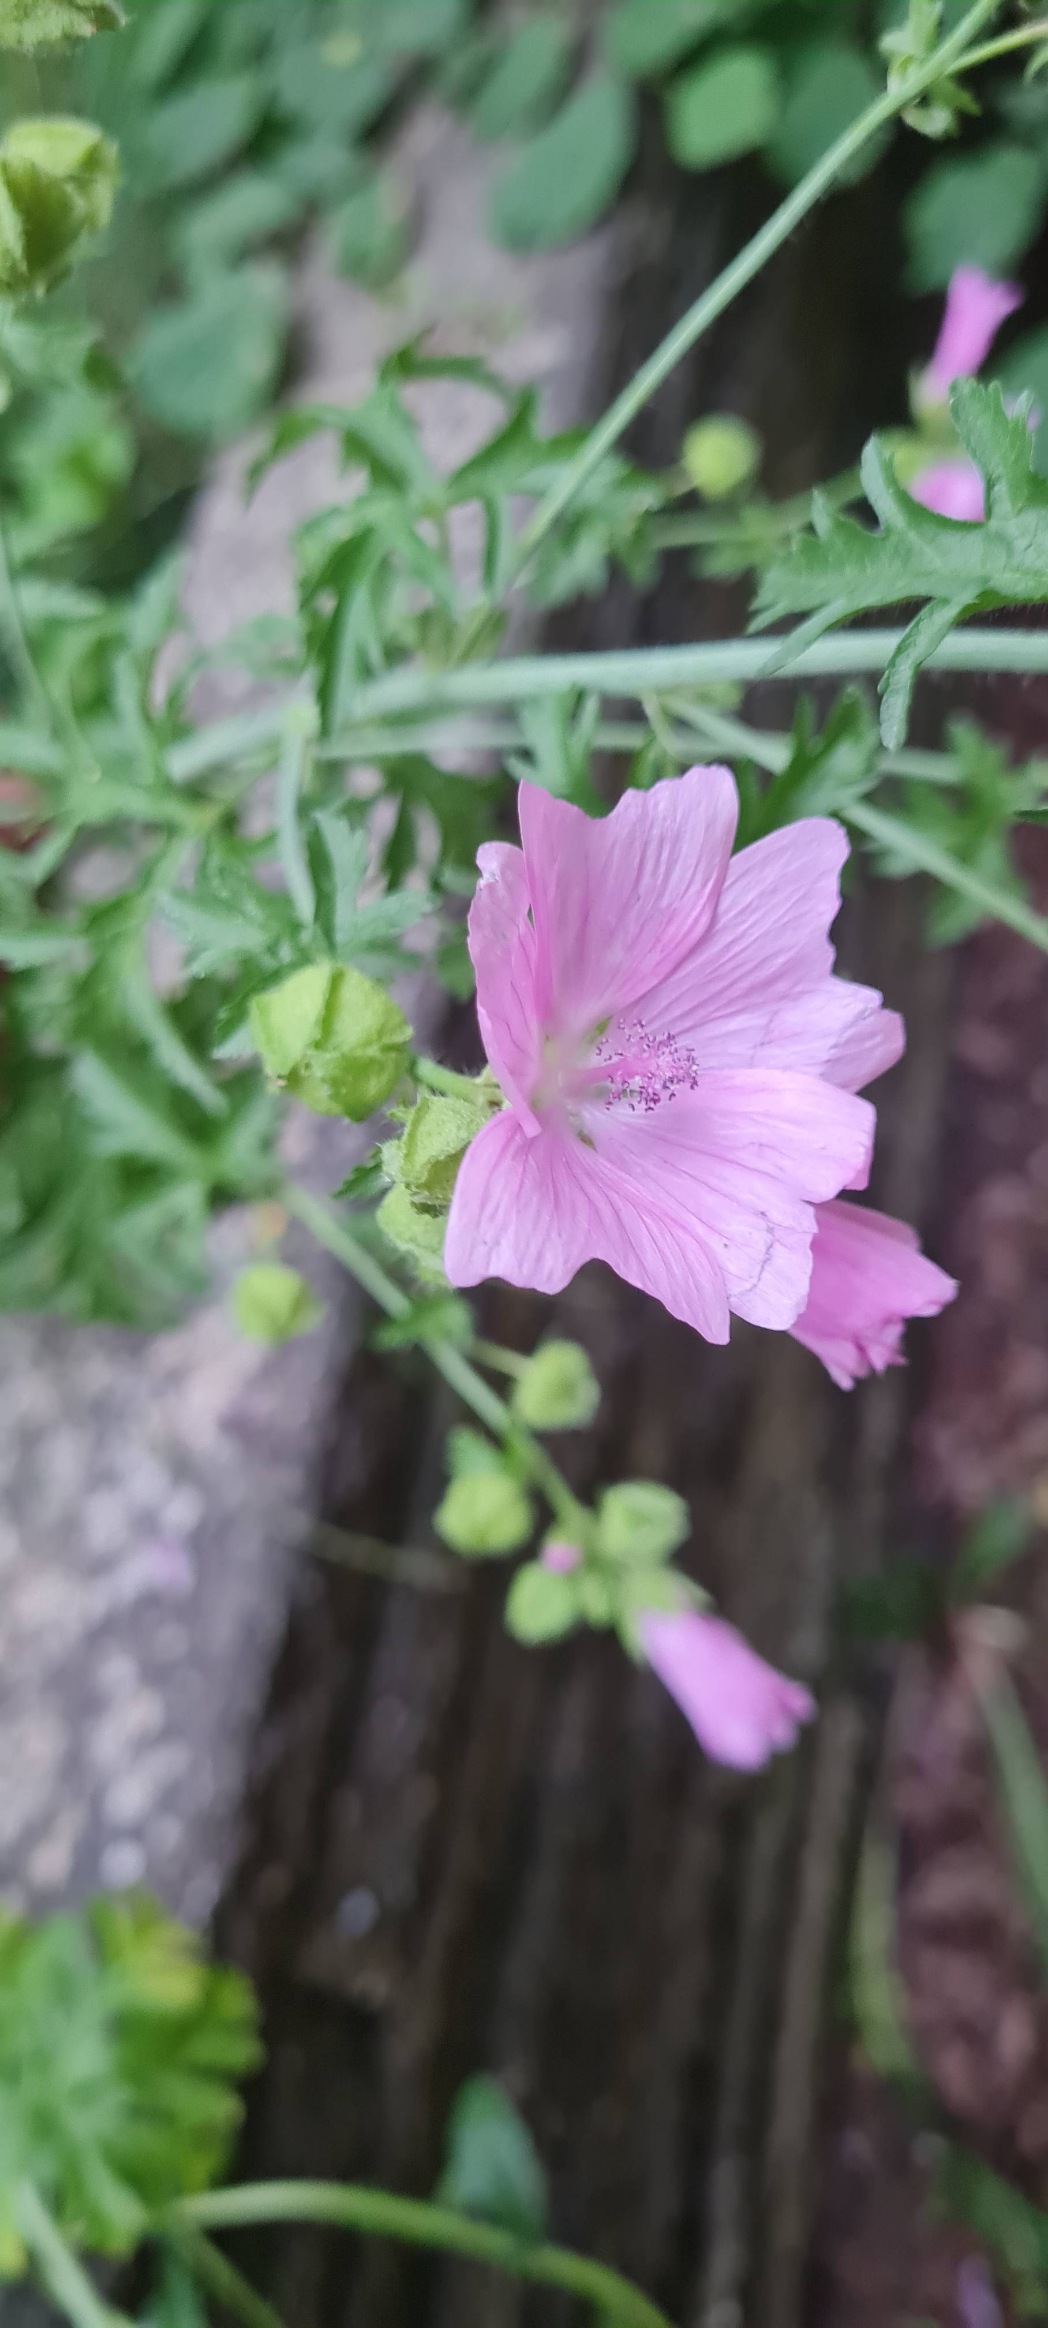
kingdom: Plantae
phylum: Tracheophyta
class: Magnoliopsida
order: Malvales
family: Malvaceae
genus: Malva
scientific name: Malva moschata
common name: Moskus-katost
